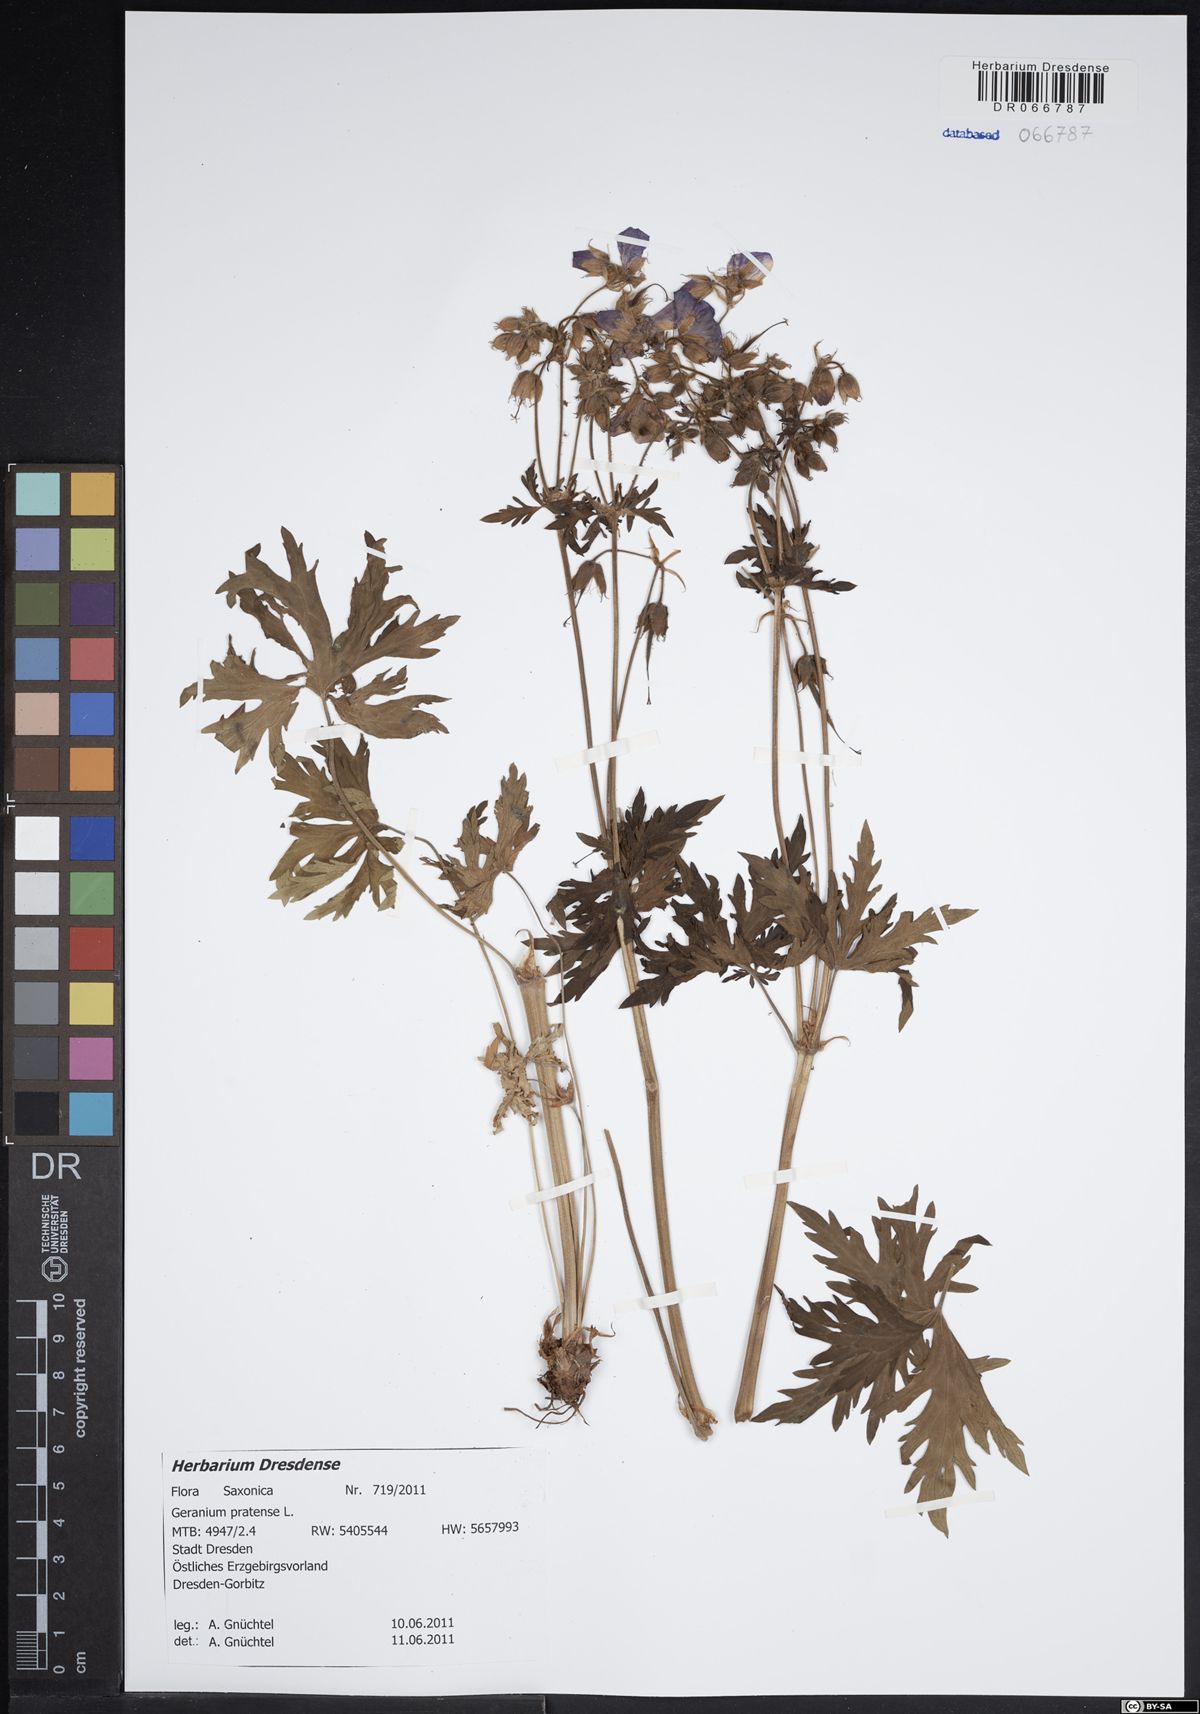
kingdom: Plantae
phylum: Tracheophyta
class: Magnoliopsida
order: Geraniales
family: Geraniaceae
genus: Geranium
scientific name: Geranium pratense
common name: Meadow crane's-bill
